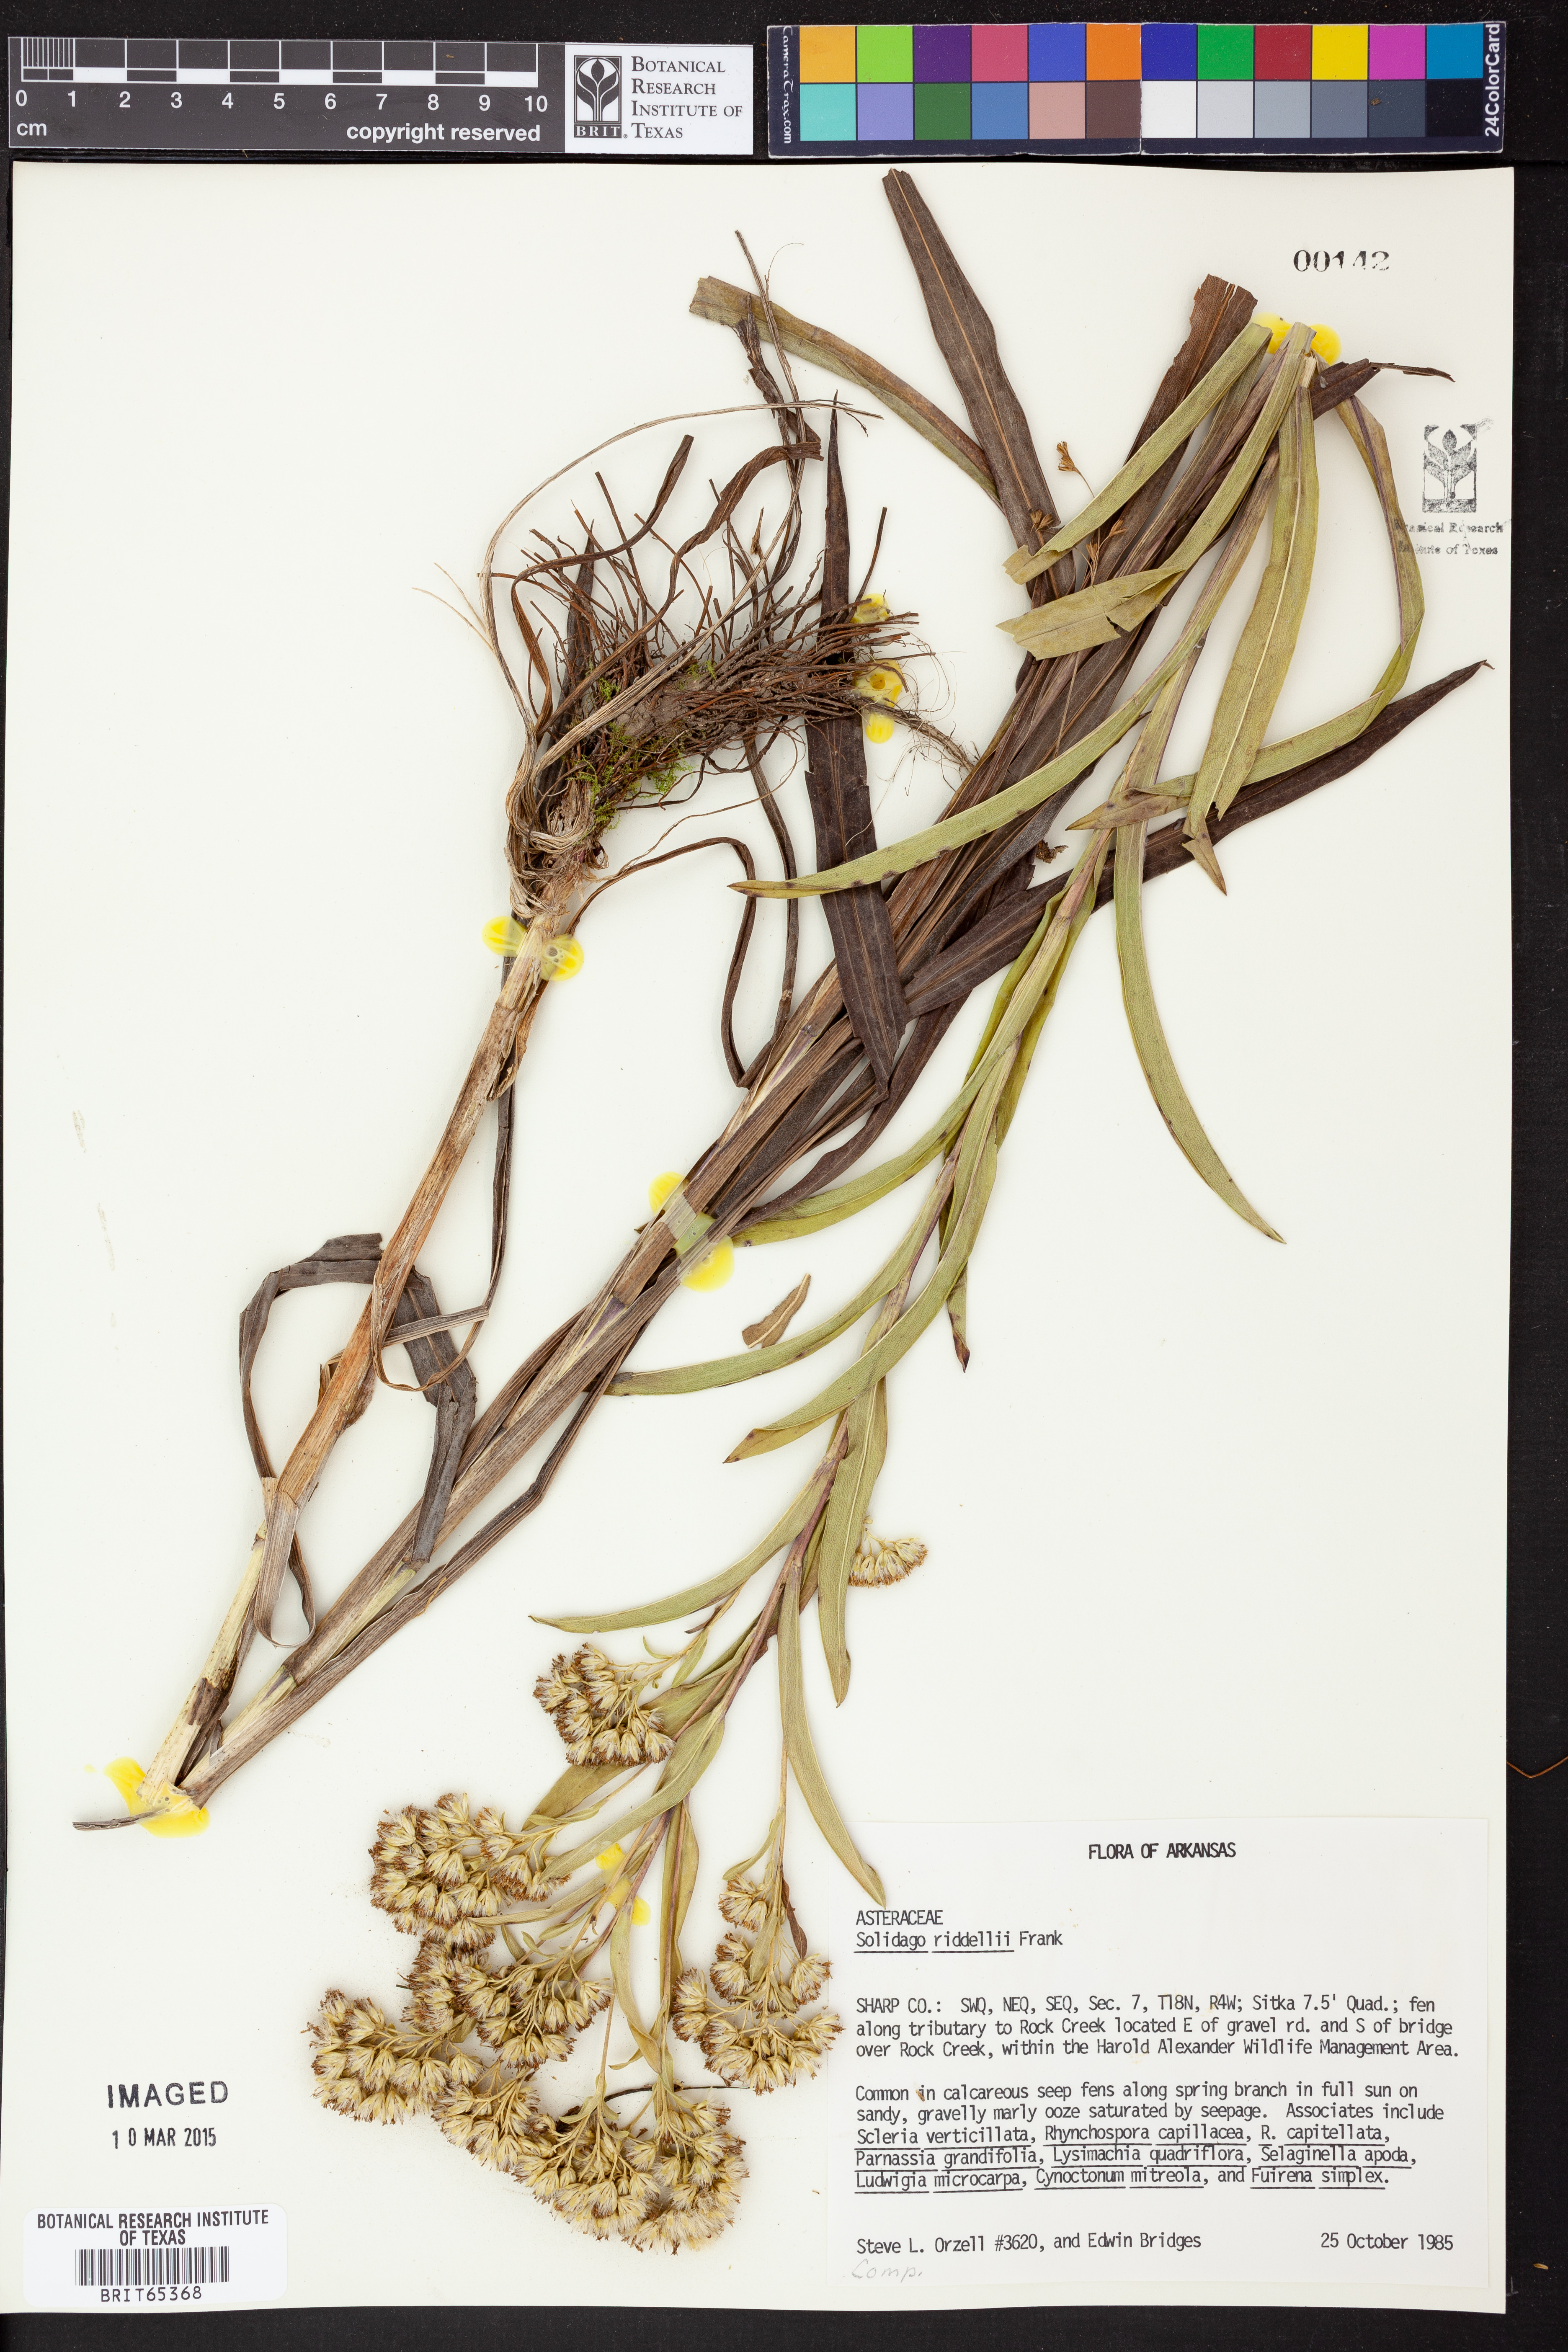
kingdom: Plantae
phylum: Tracheophyta
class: Magnoliopsida
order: Asterales
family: Asteraceae
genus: Solidago
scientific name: Solidago riddellii
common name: Riddell's goldenrod
